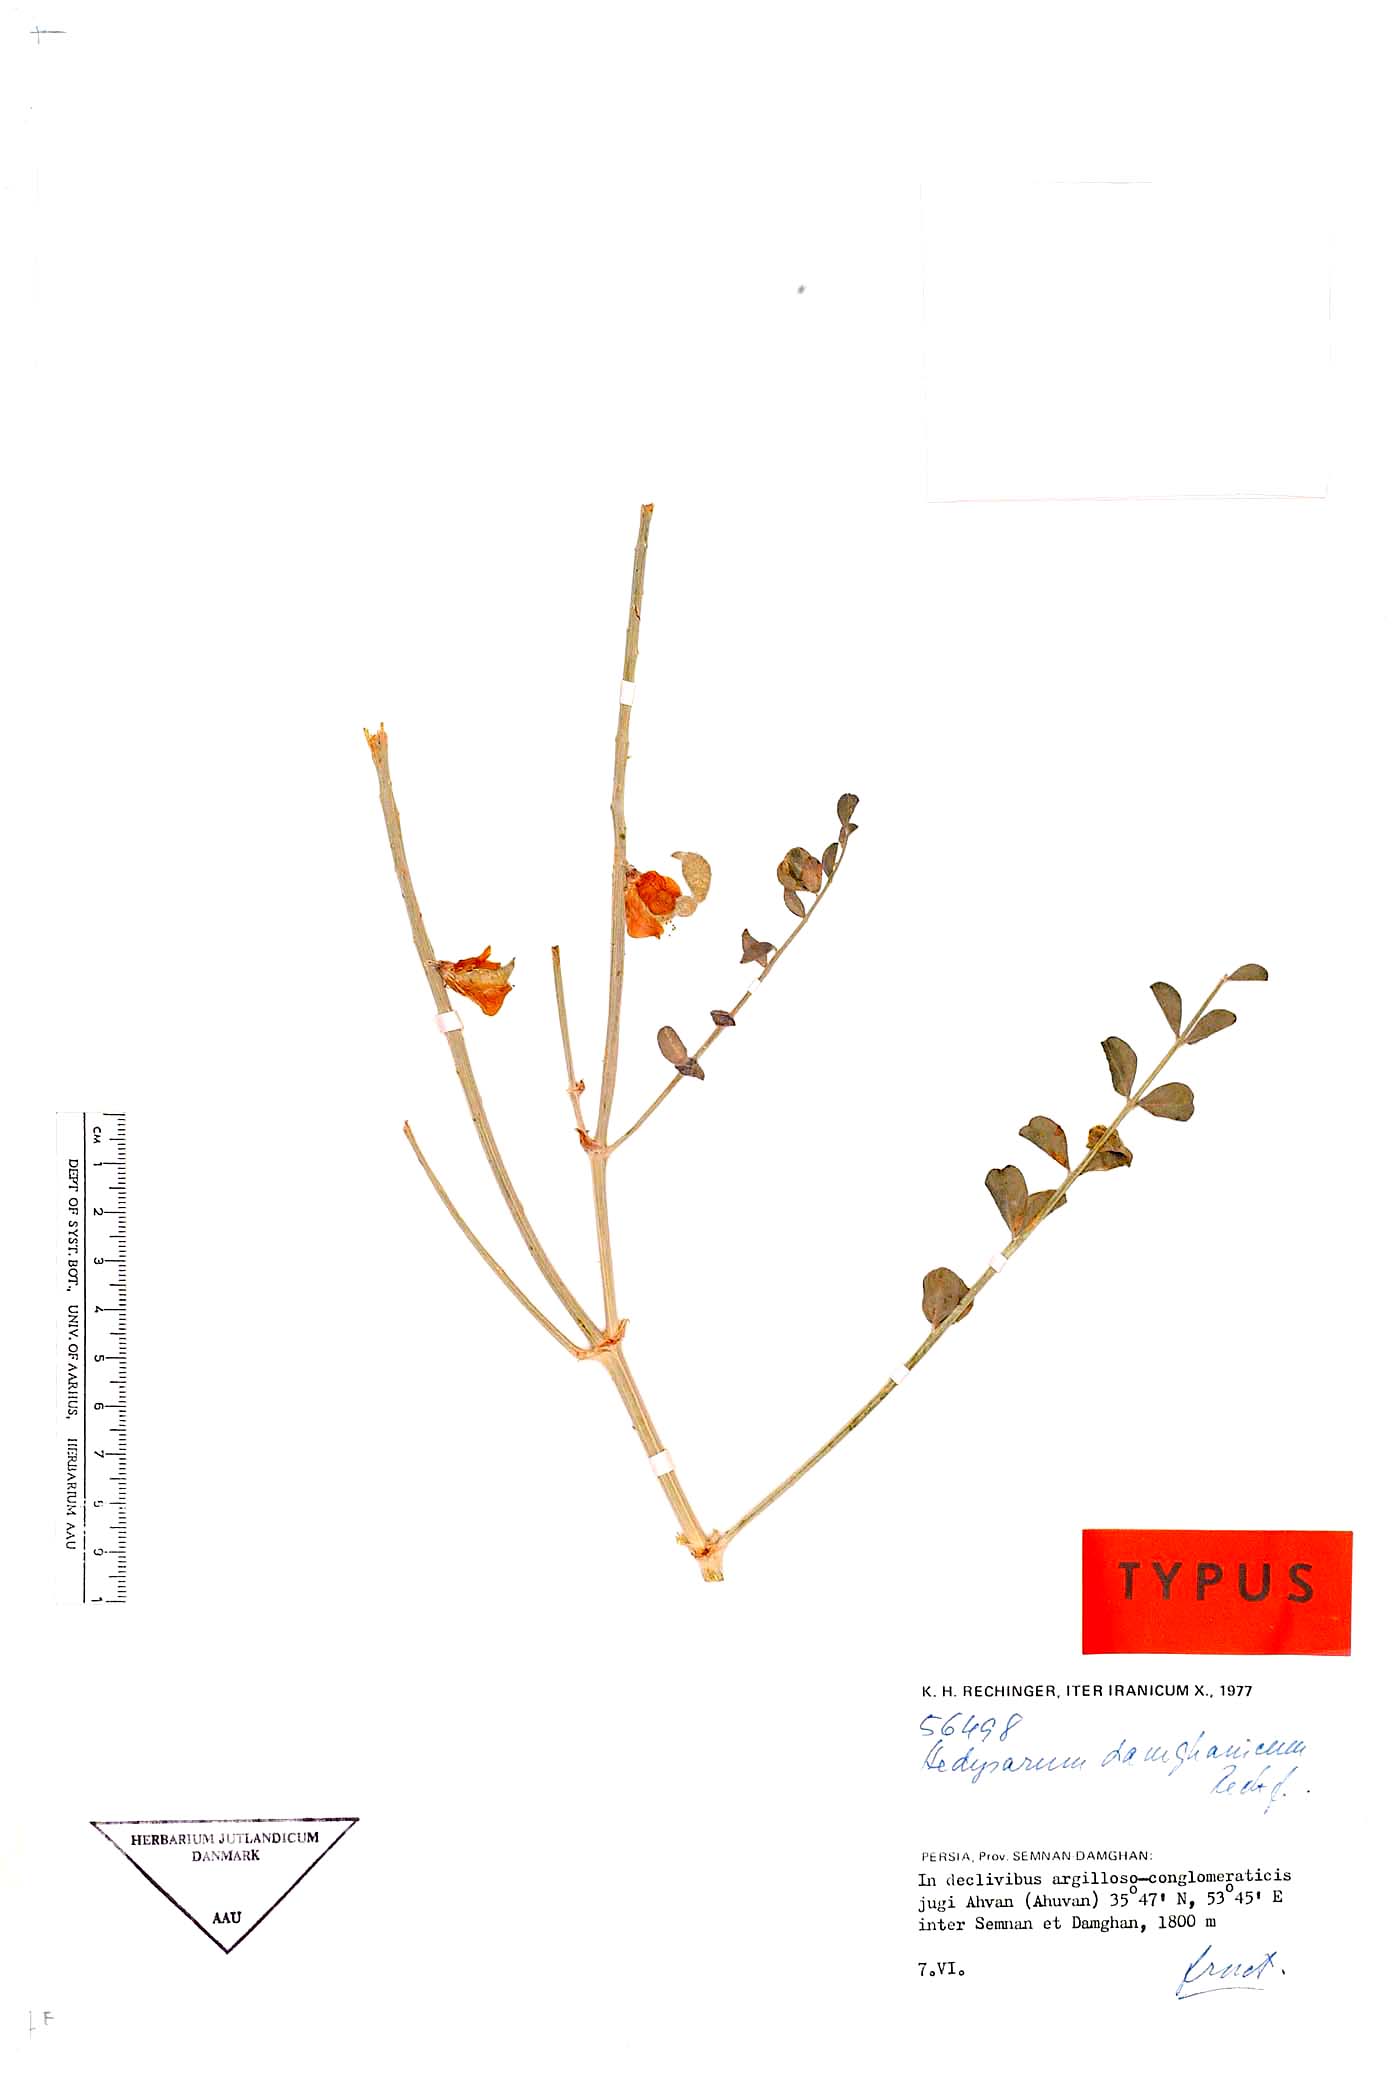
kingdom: Plantae
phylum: Tracheophyta
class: Magnoliopsida
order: Fabales
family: Fabaceae
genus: Hedysarum
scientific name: Hedysarum damghanicum
